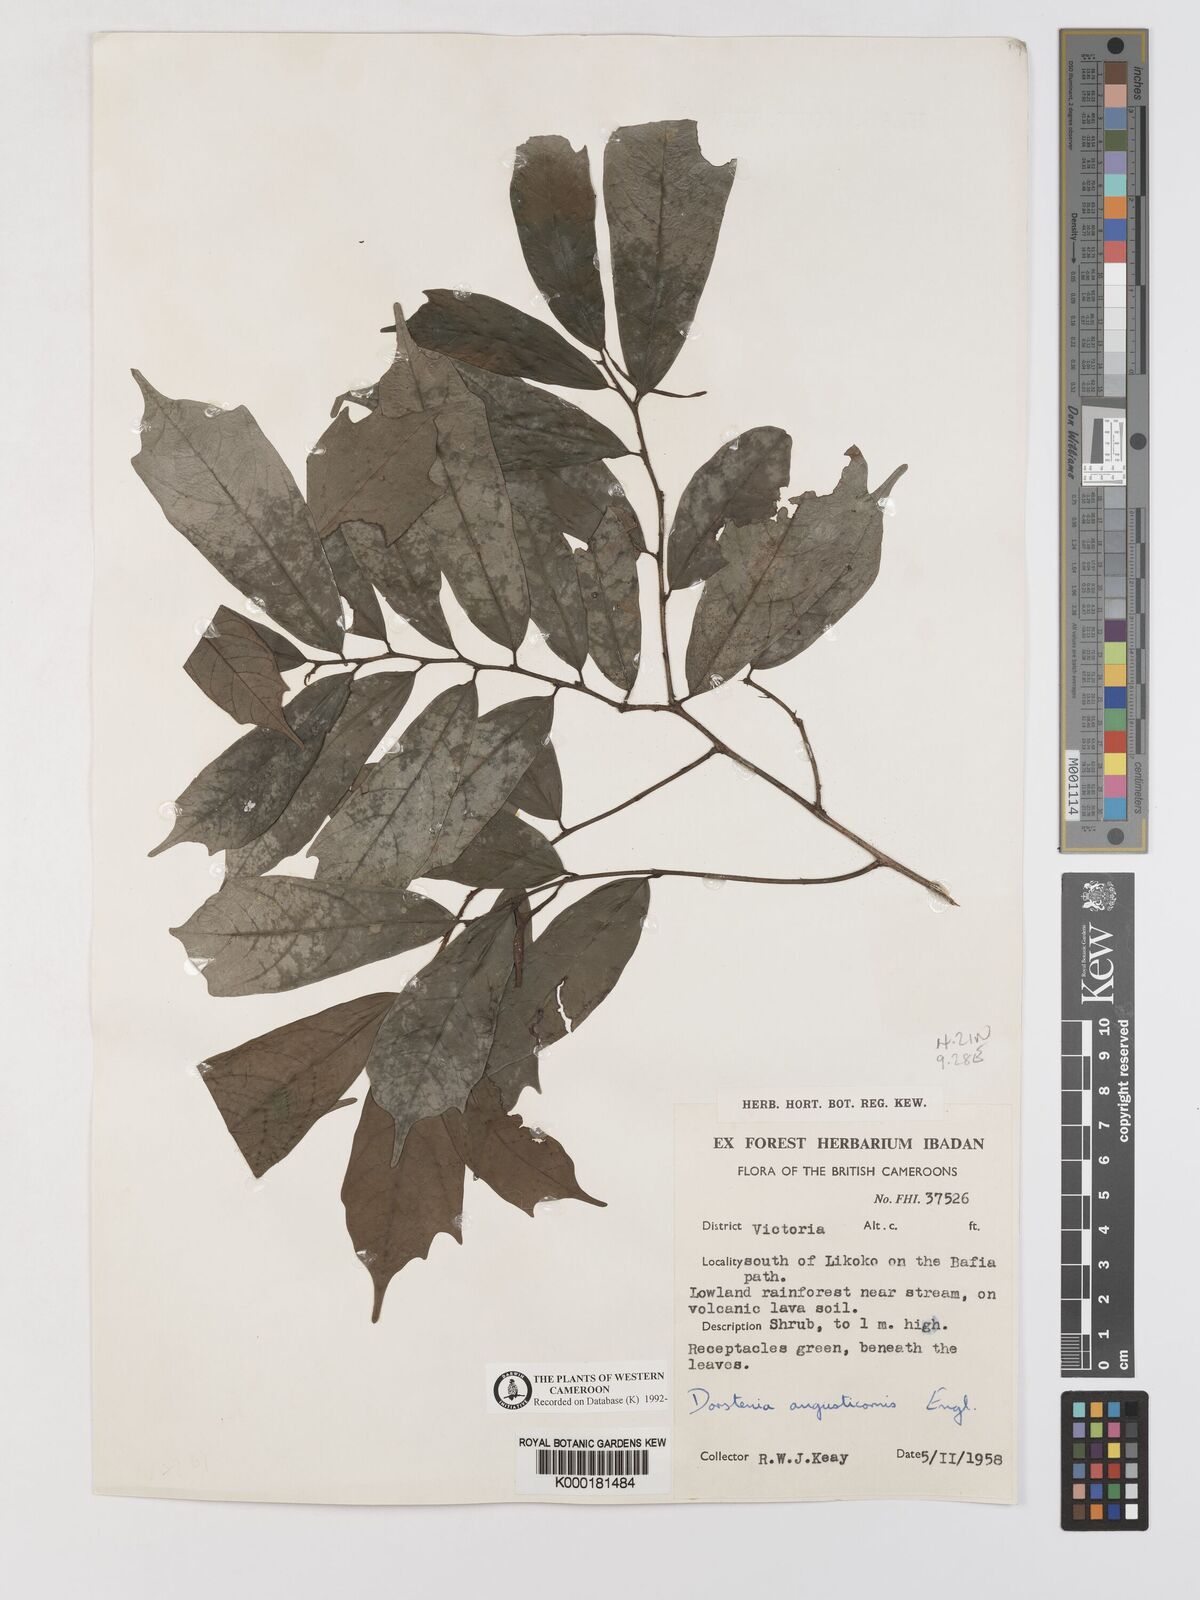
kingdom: Plantae
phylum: Tracheophyta
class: Magnoliopsida
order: Rosales
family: Moraceae
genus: Hijmania
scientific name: Hijmania angusticornis
